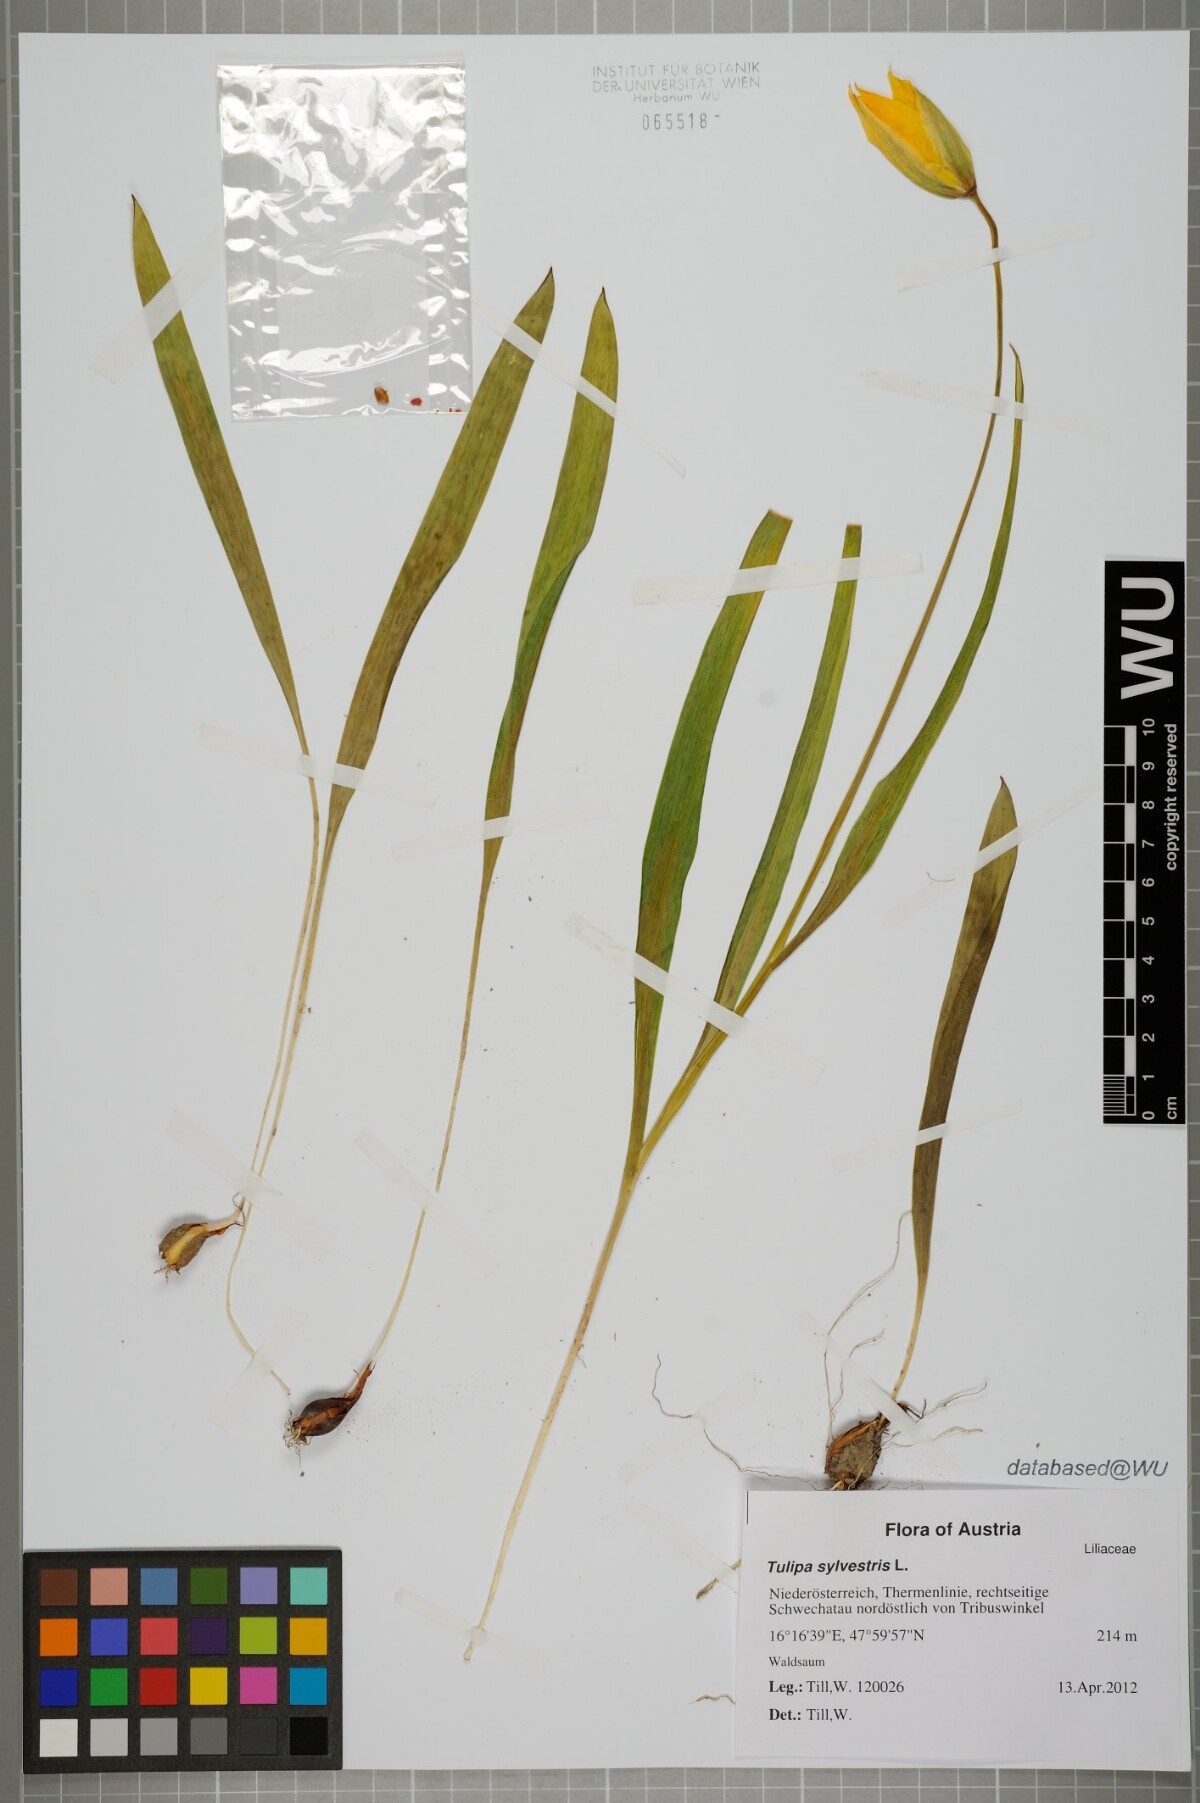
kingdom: Plantae
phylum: Tracheophyta
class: Liliopsida
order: Liliales
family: Liliaceae
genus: Tulipa
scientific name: Tulipa sylvestris
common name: Wild tulip
